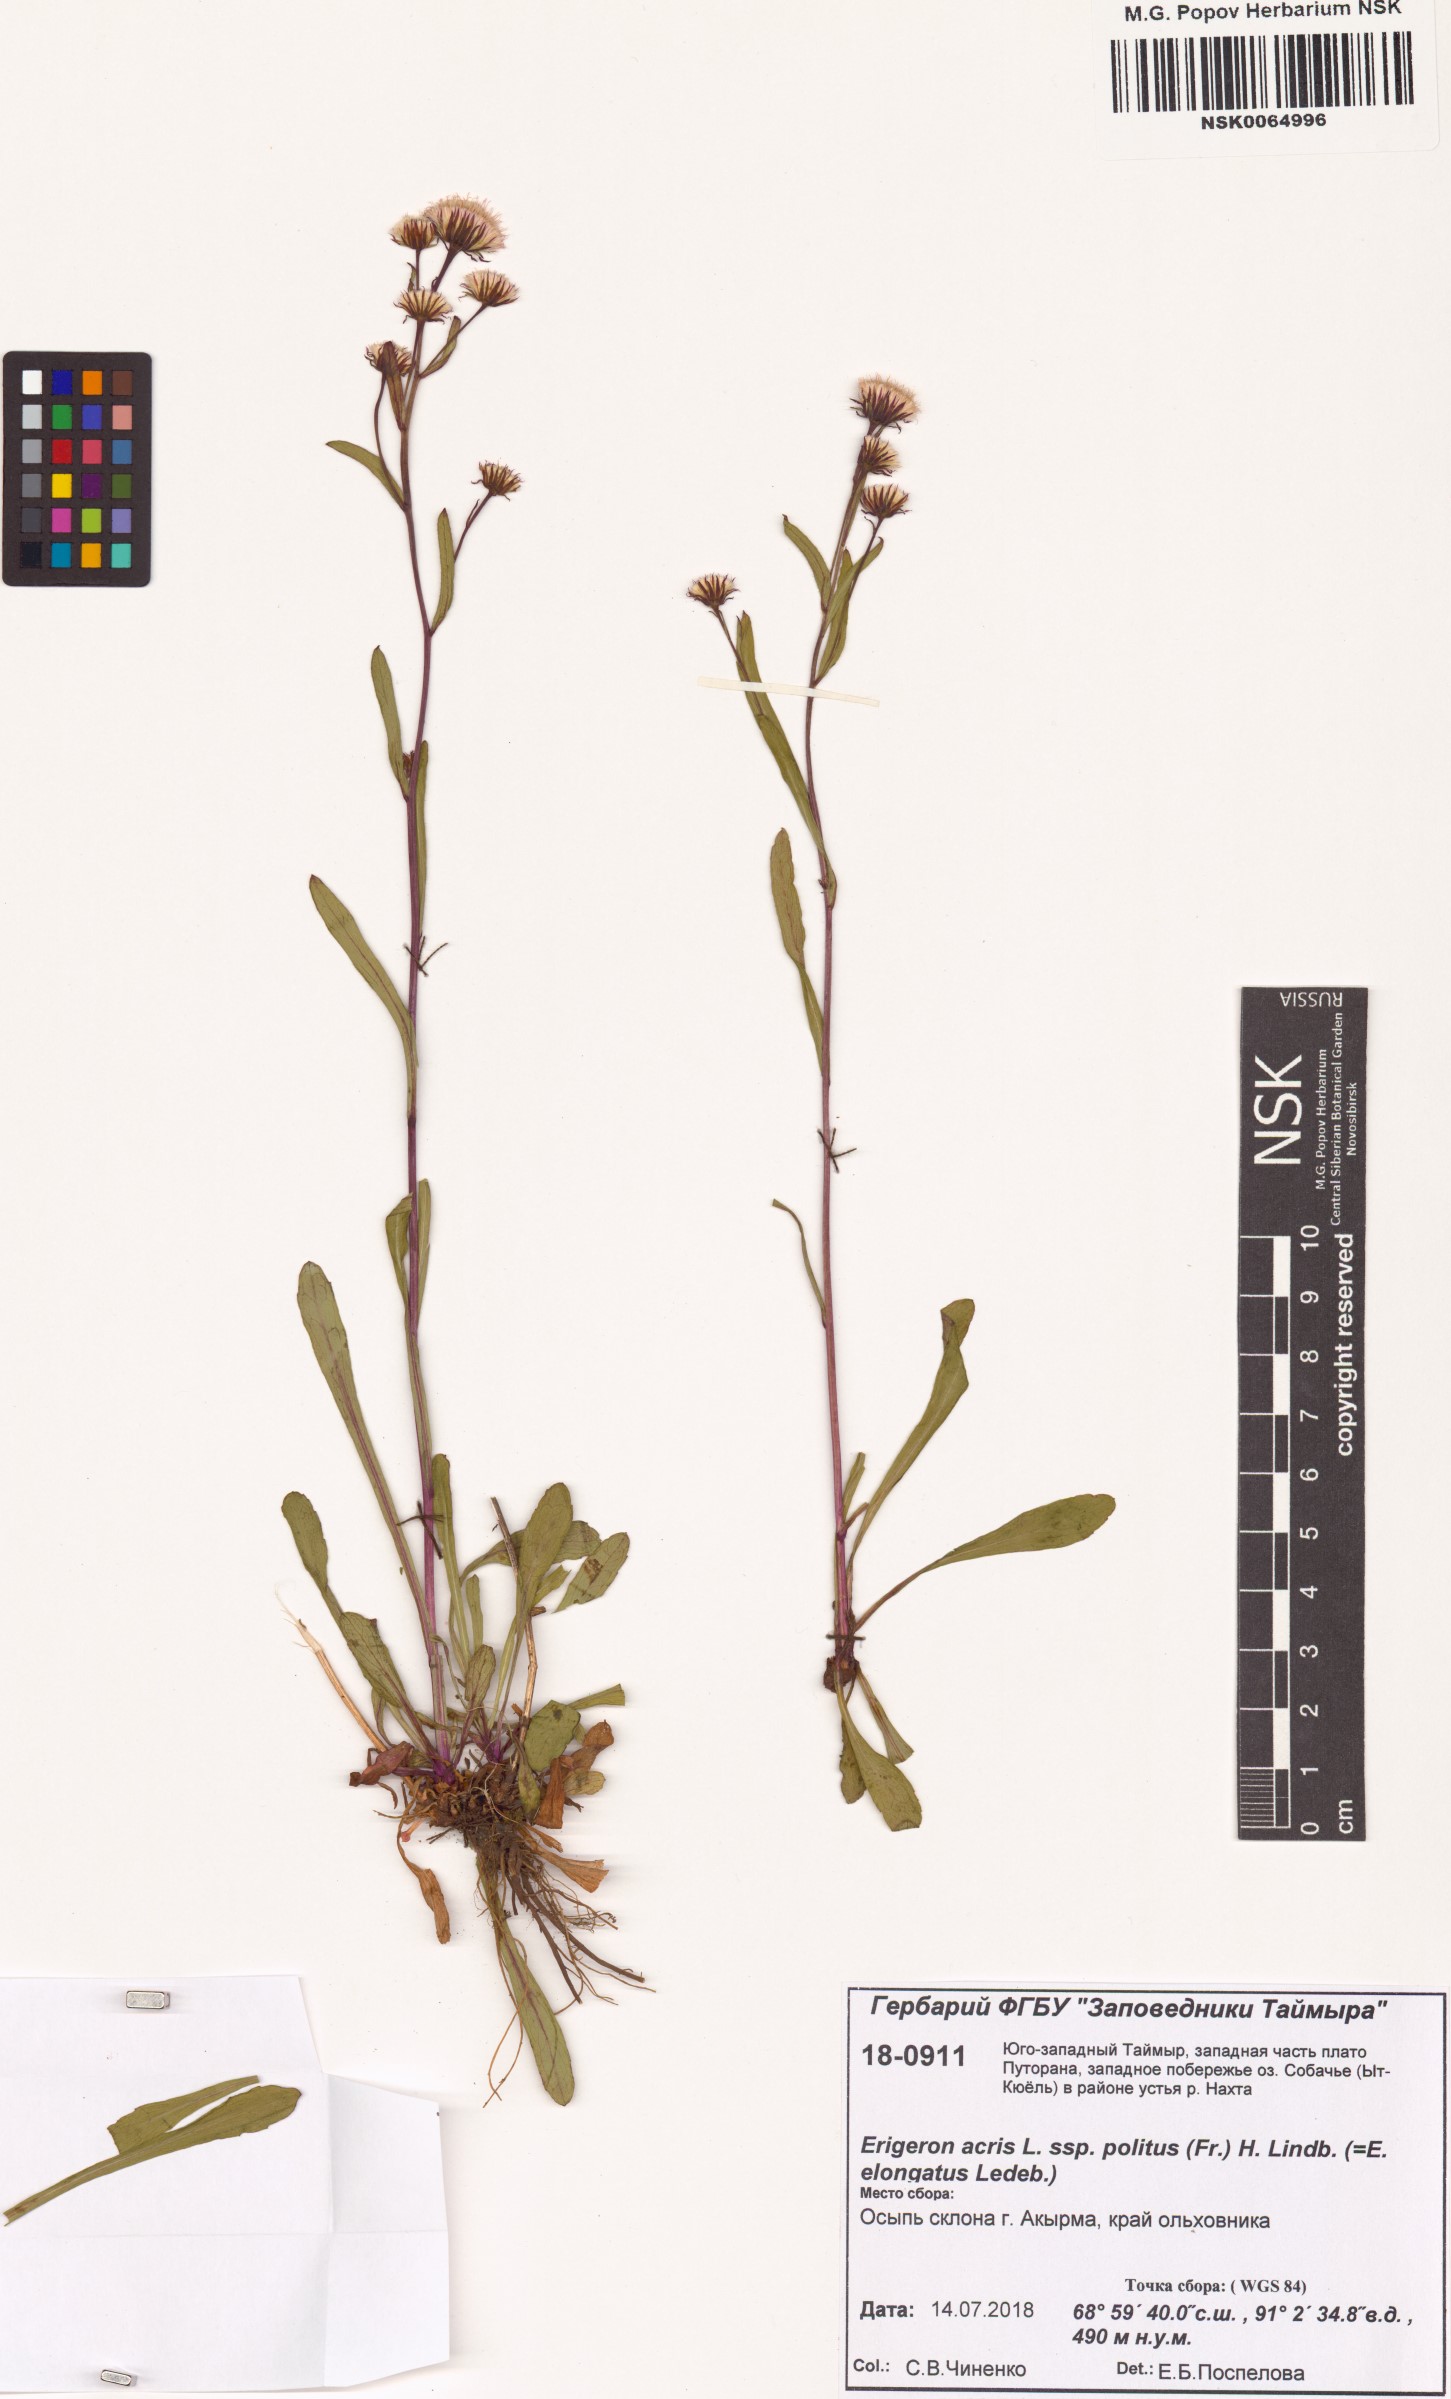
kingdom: Plantae
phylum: Tracheophyta
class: Magnoliopsida
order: Asterales
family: Asteraceae
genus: Erigeron
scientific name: Erigeron politus
